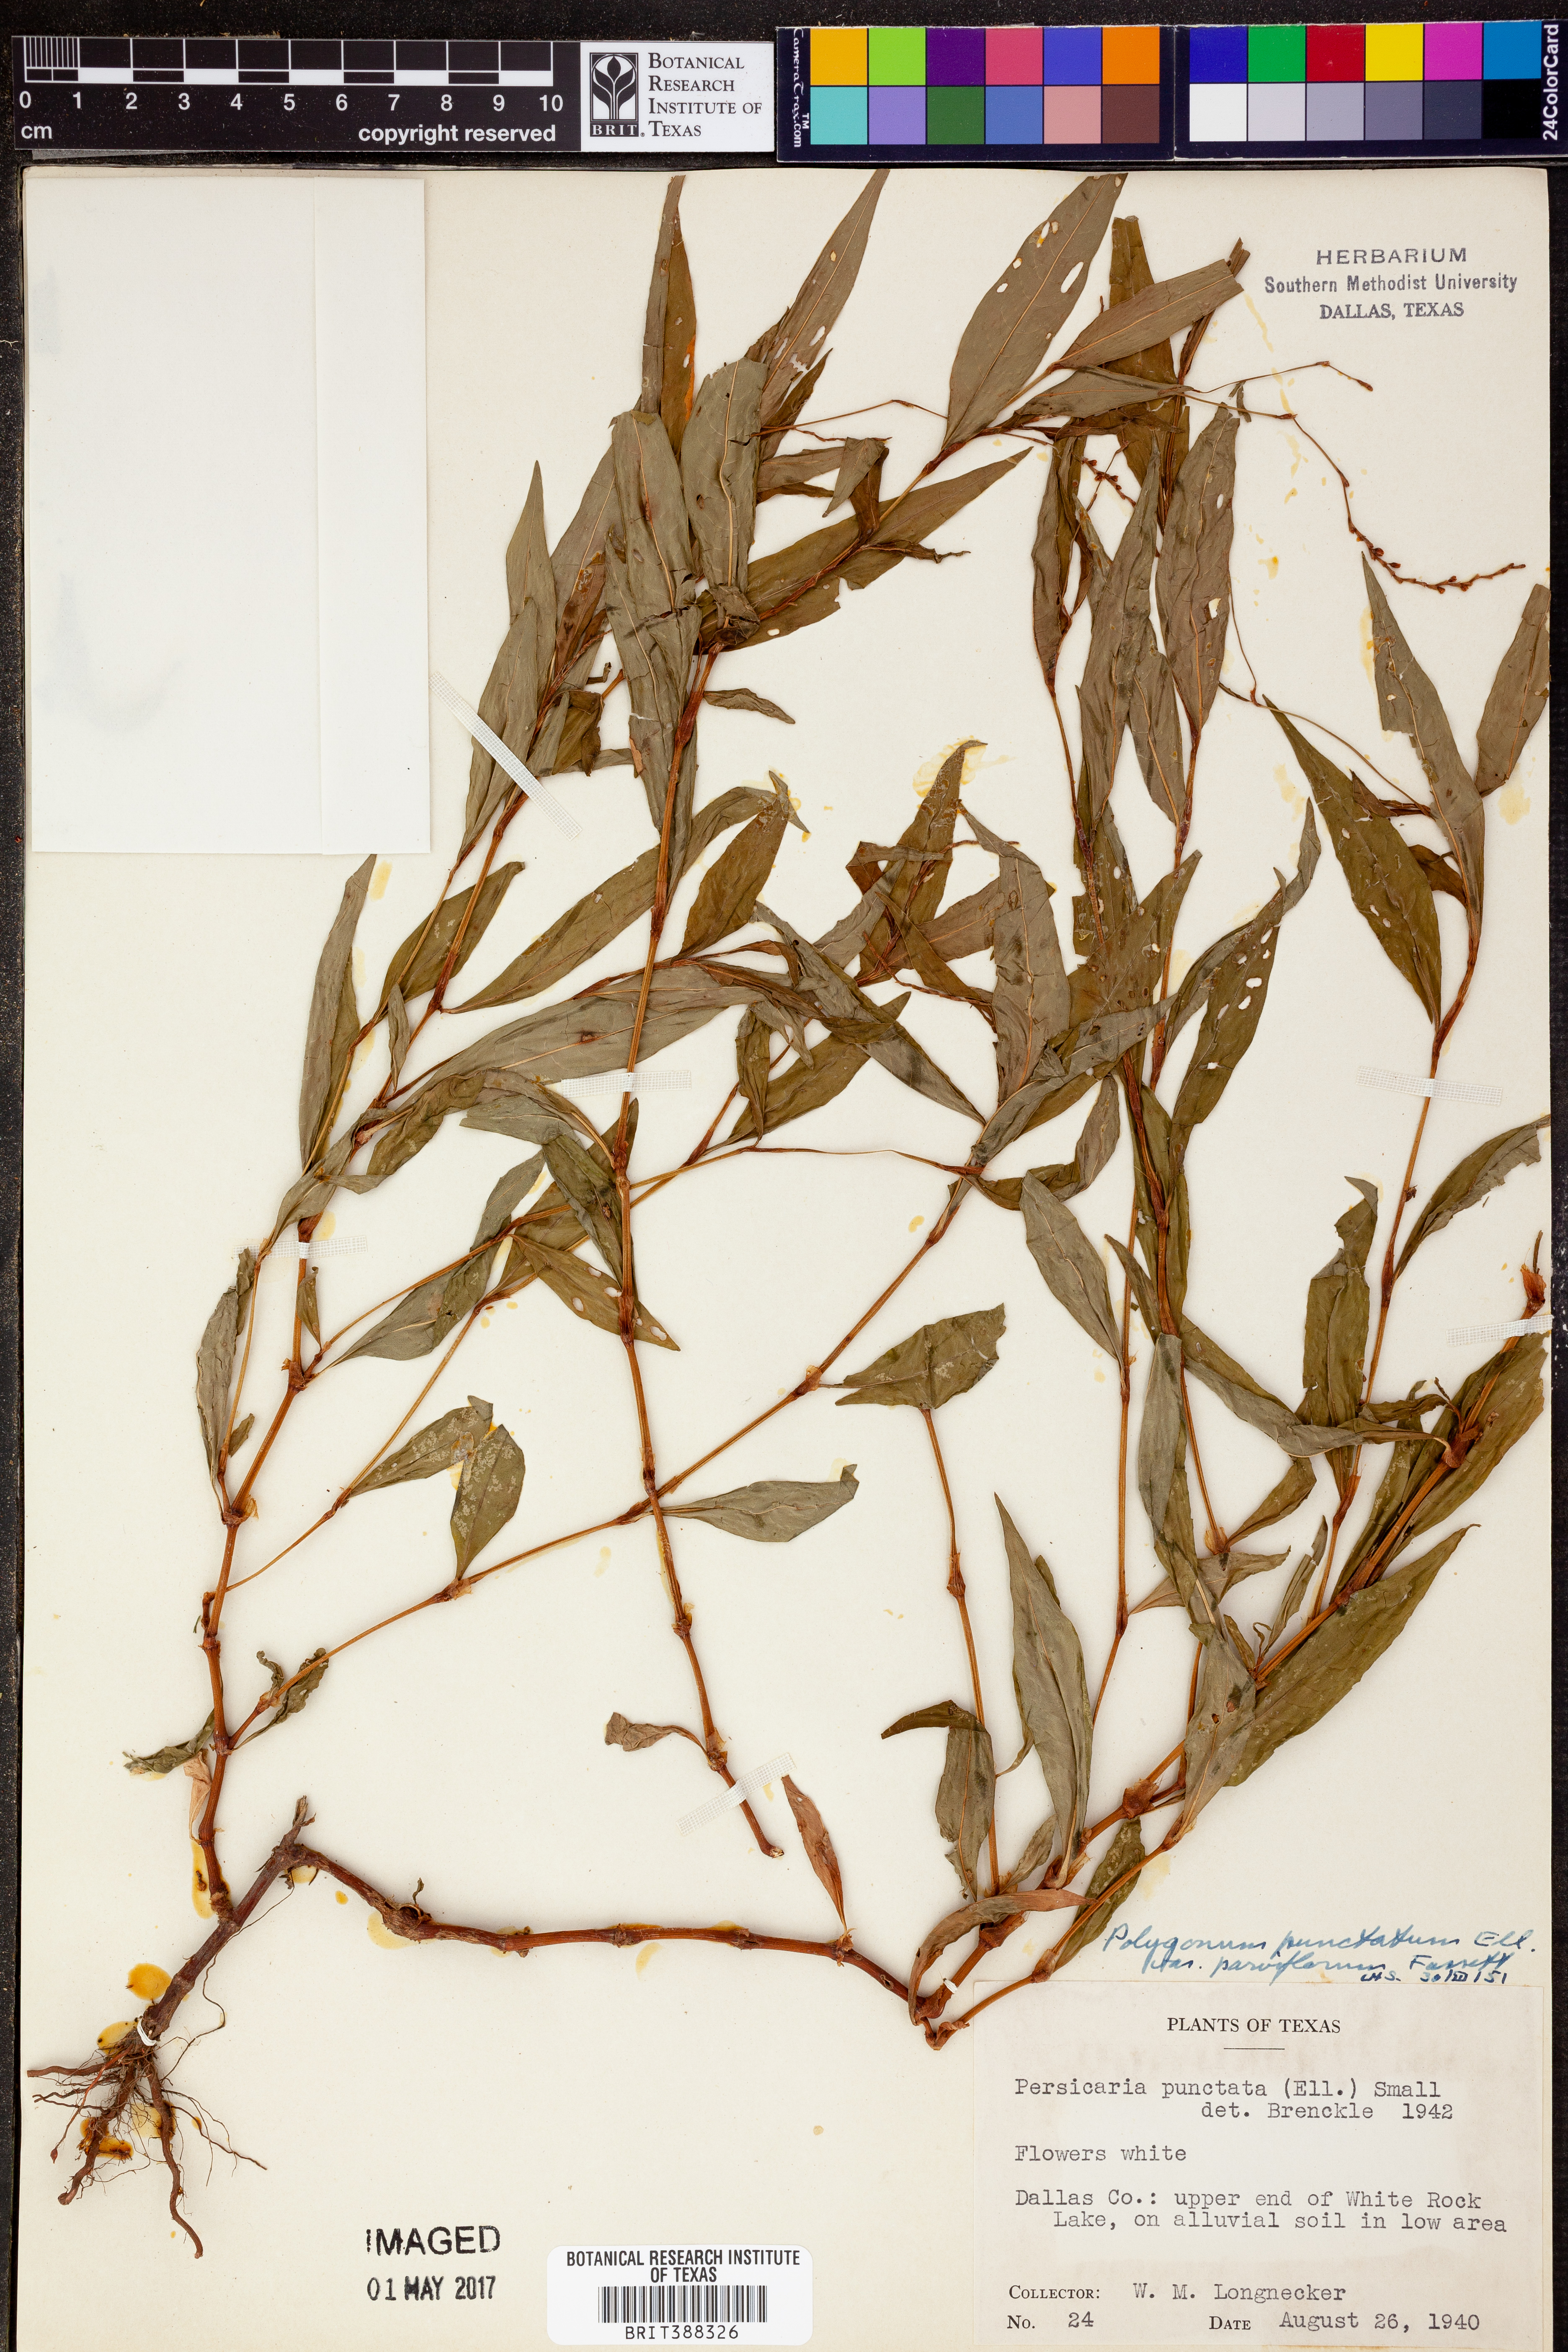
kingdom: Plantae
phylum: Tracheophyta
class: Magnoliopsida
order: Caryophyllales
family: Polygonaceae
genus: Persicaria
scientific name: Persicaria punctata
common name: Dotted smartweed
